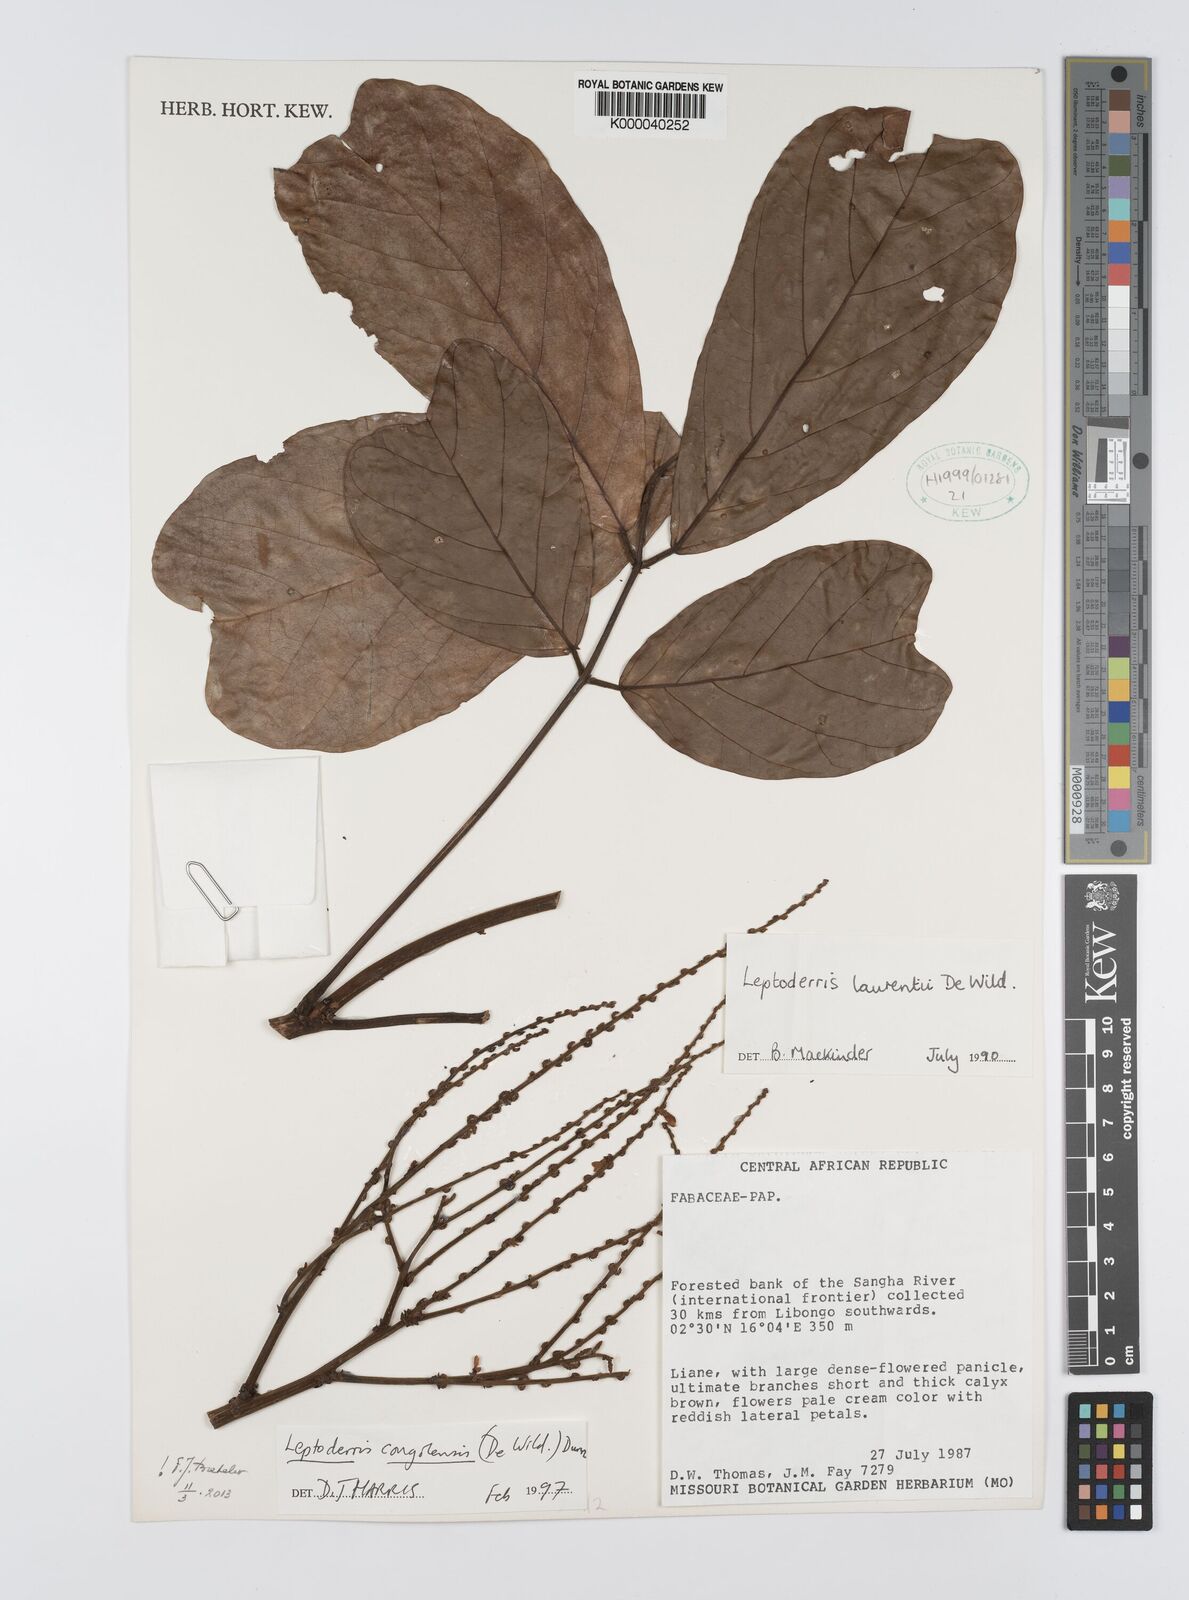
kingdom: Plantae
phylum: Tracheophyta
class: Magnoliopsida
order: Fabales
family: Fabaceae
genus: Leptoderris
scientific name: Leptoderris congolensis
